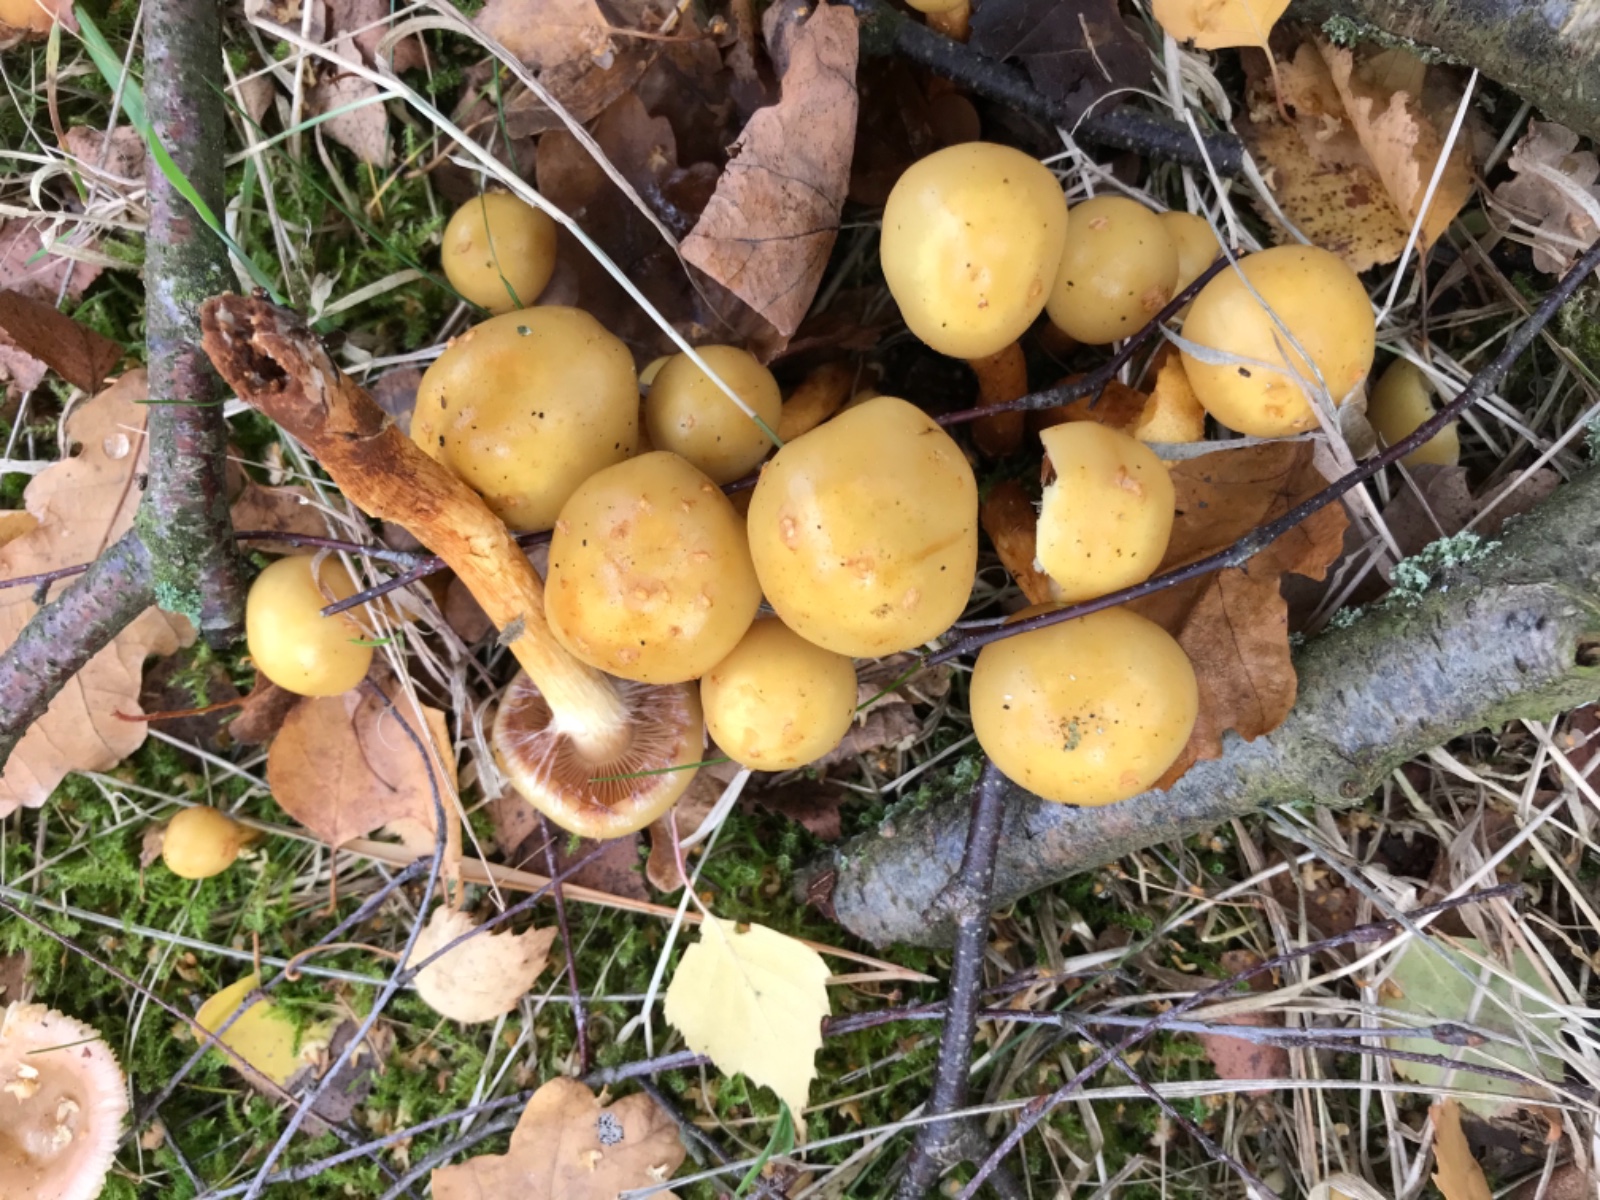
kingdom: Fungi
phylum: Basidiomycota
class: Agaricomycetes
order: Agaricales
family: Hymenogastraceae
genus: Flammula
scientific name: Flammula alnicola
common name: elle-skælhat
